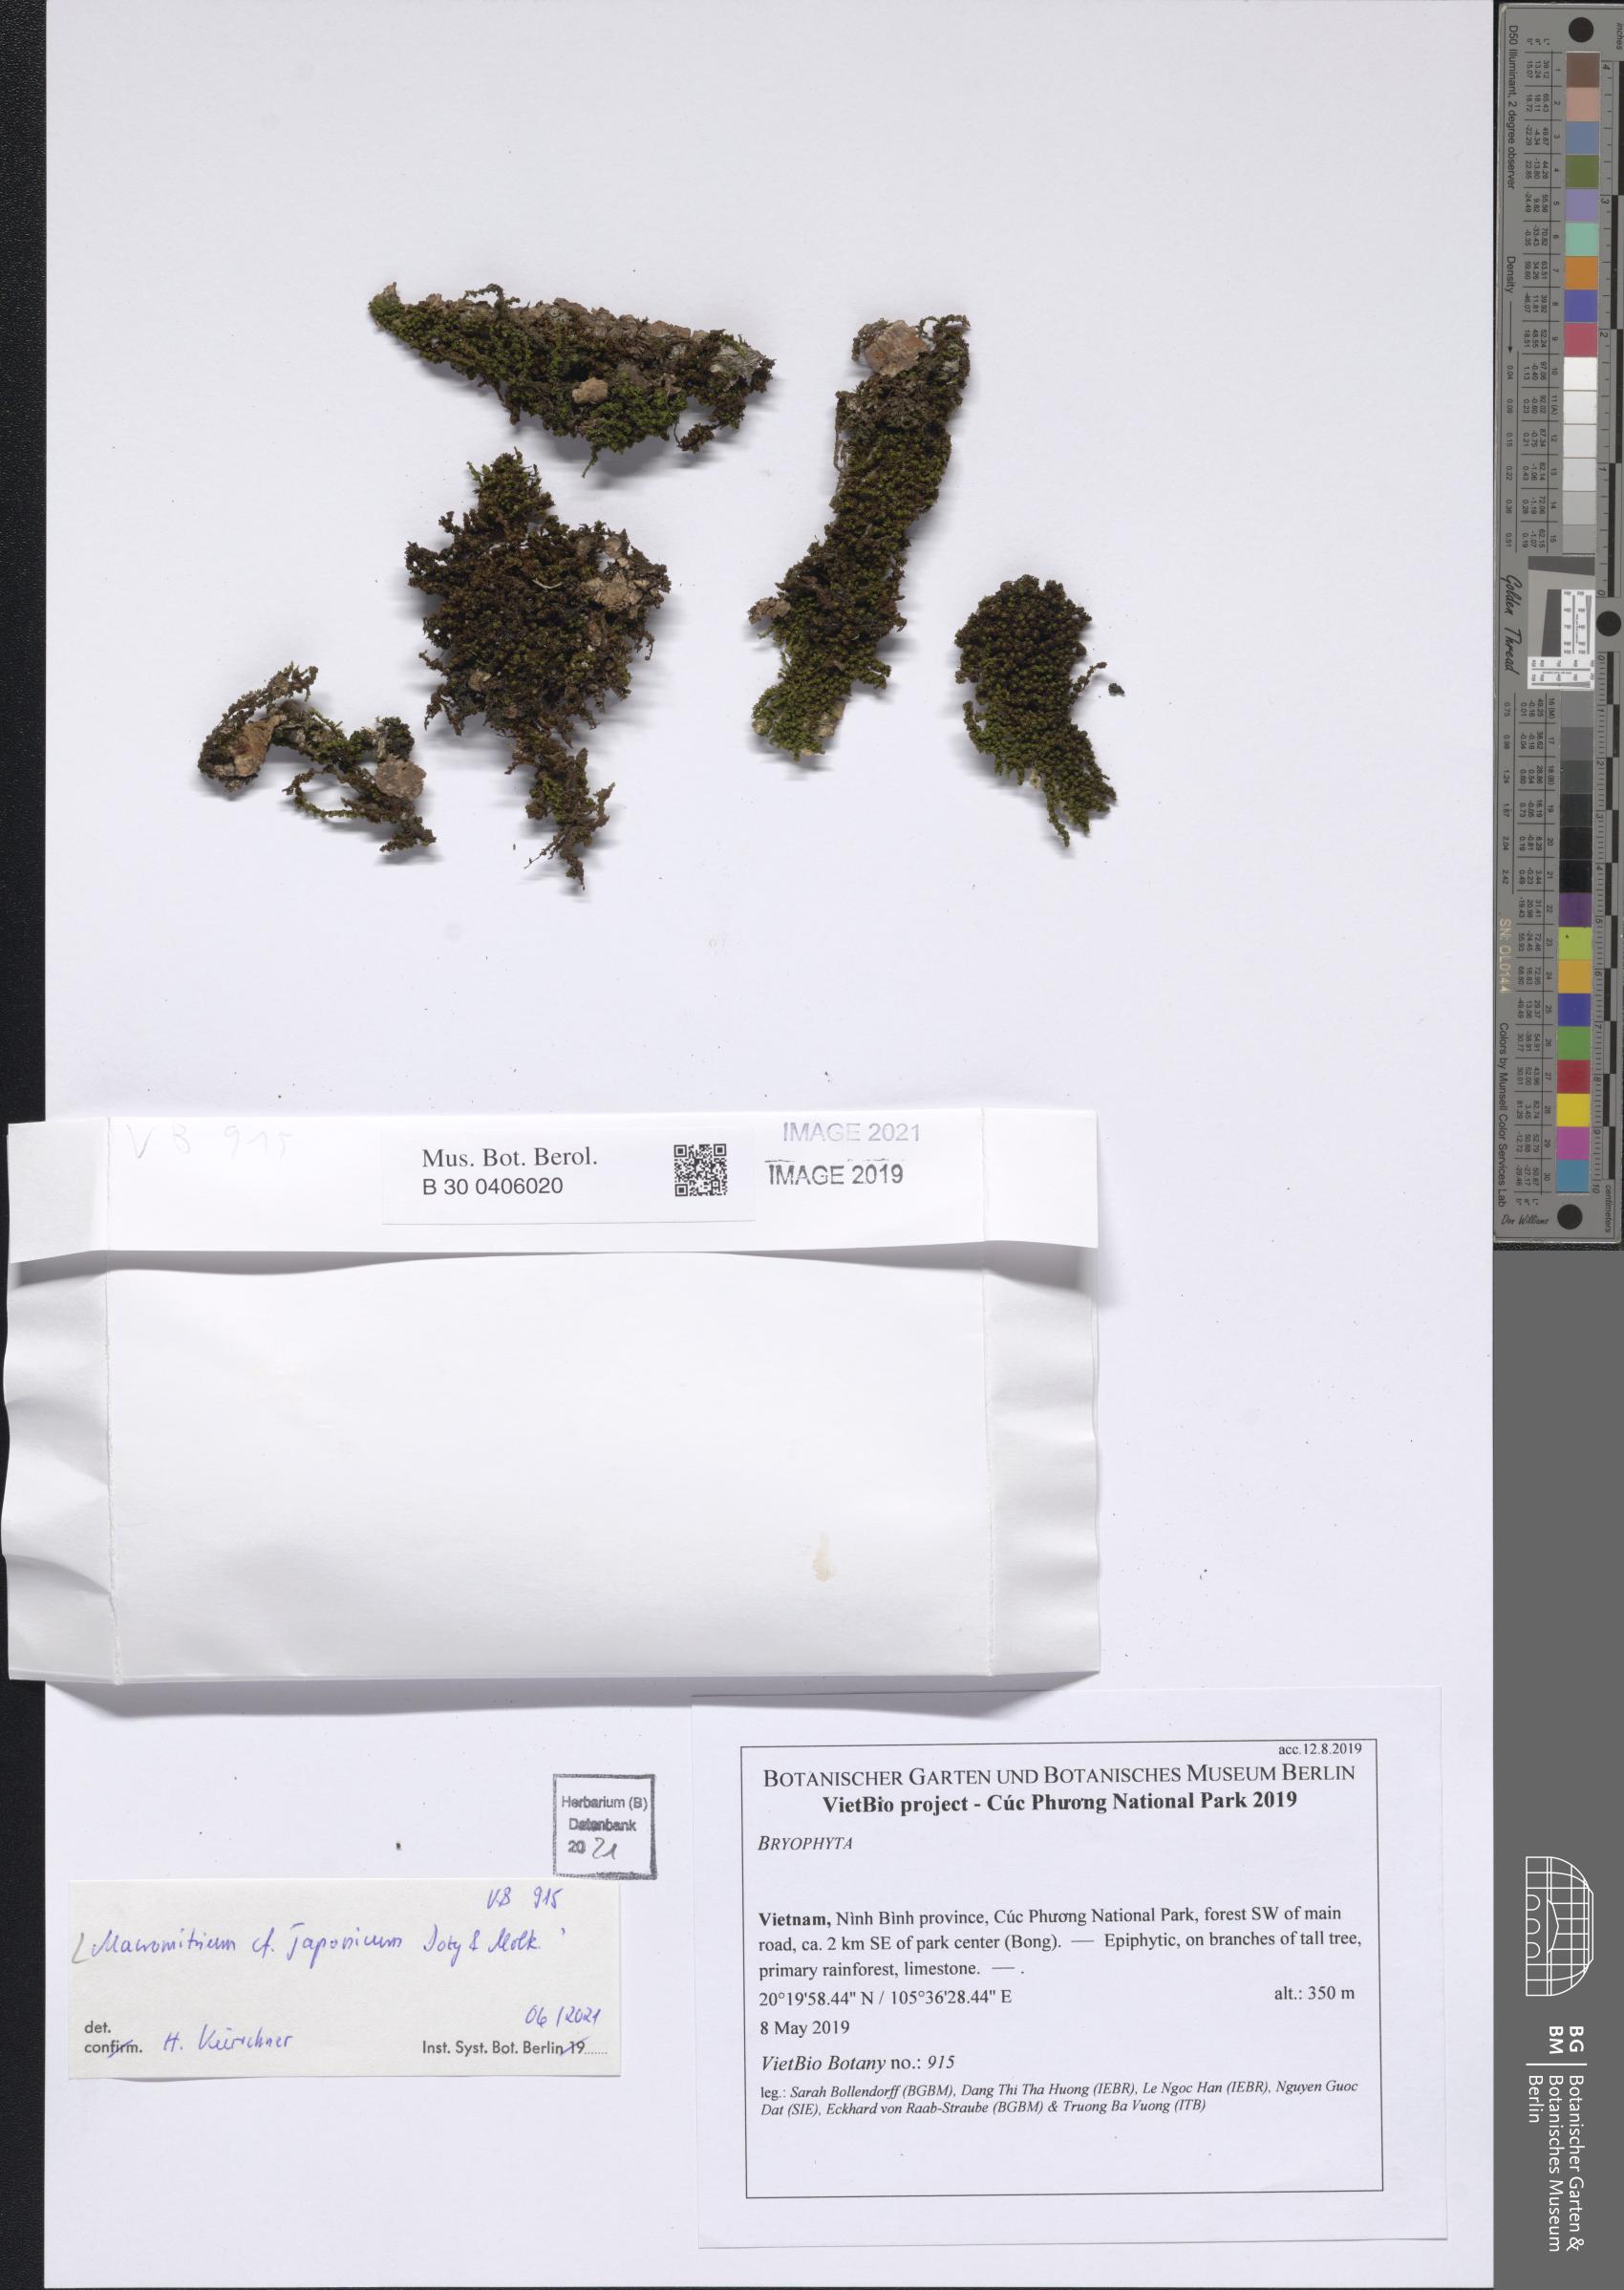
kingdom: Plantae
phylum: Bryophyta
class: Bryopsida
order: Orthotrichales
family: Orthotrichaceae
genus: Macromitrium
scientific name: Macromitrium japonicum
